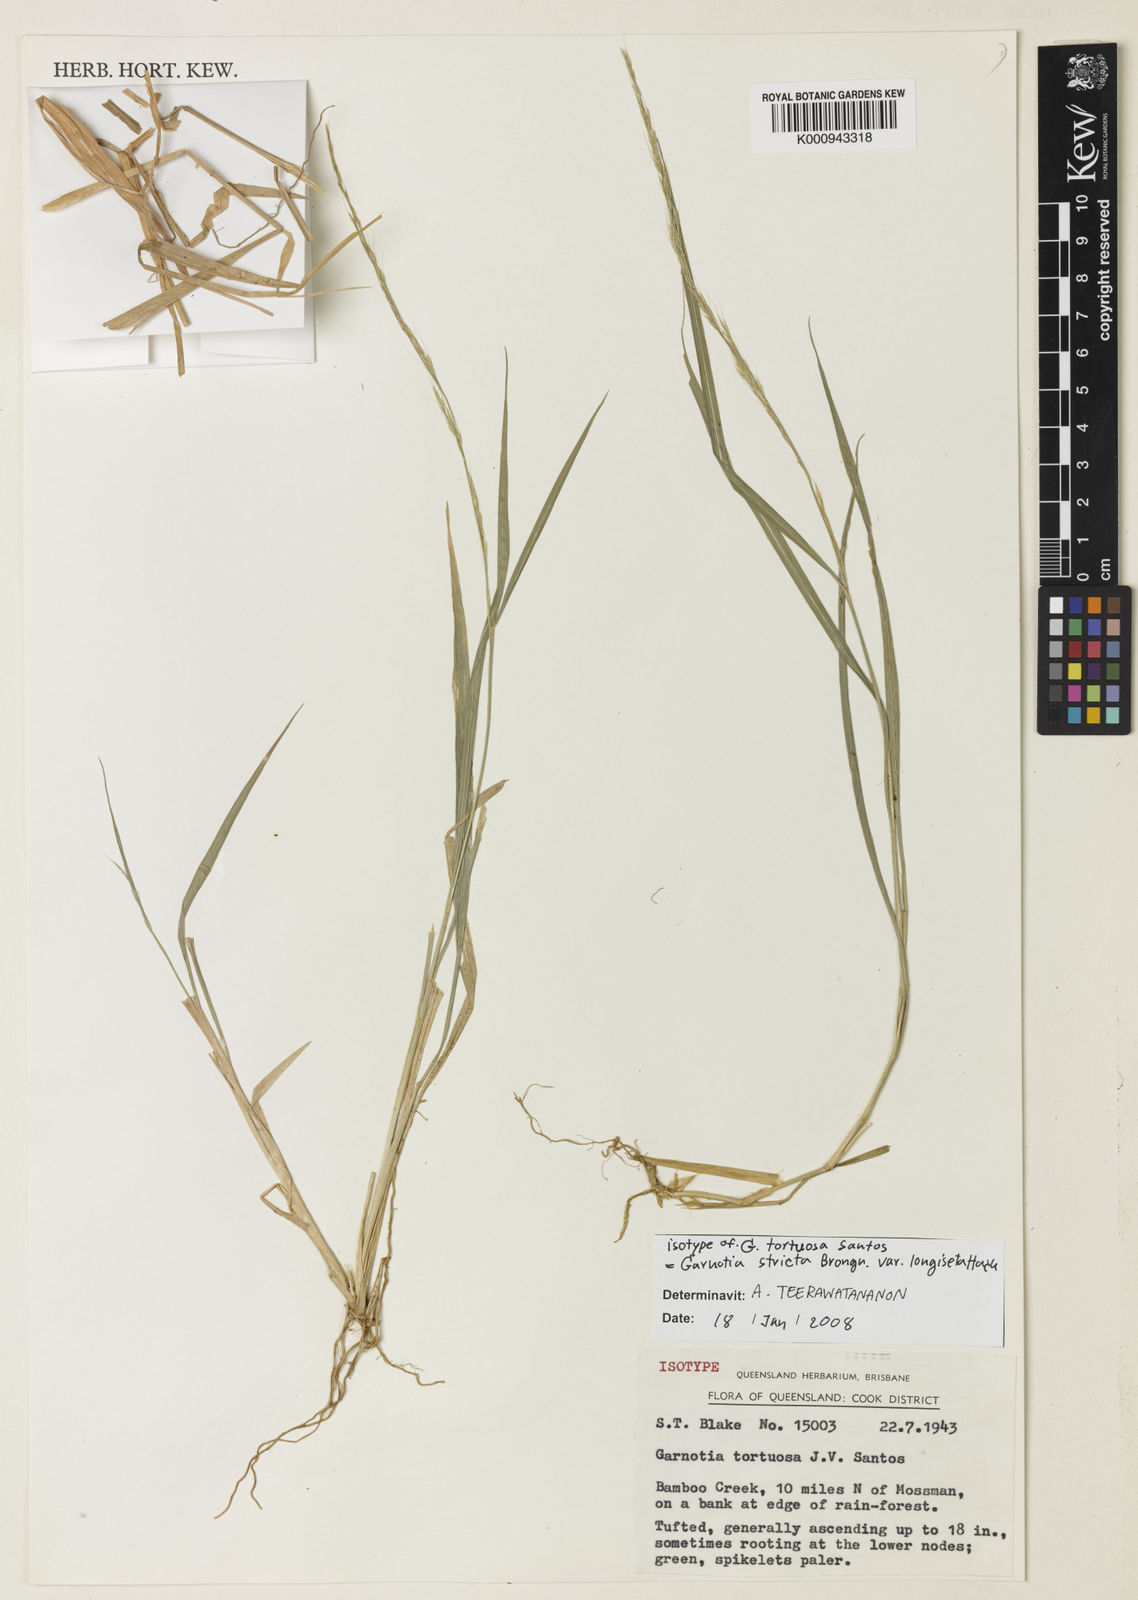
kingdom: Plantae
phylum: Tracheophyta
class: Liliopsida
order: Poales
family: Poaceae
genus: Garnotia
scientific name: Garnotia stricta
